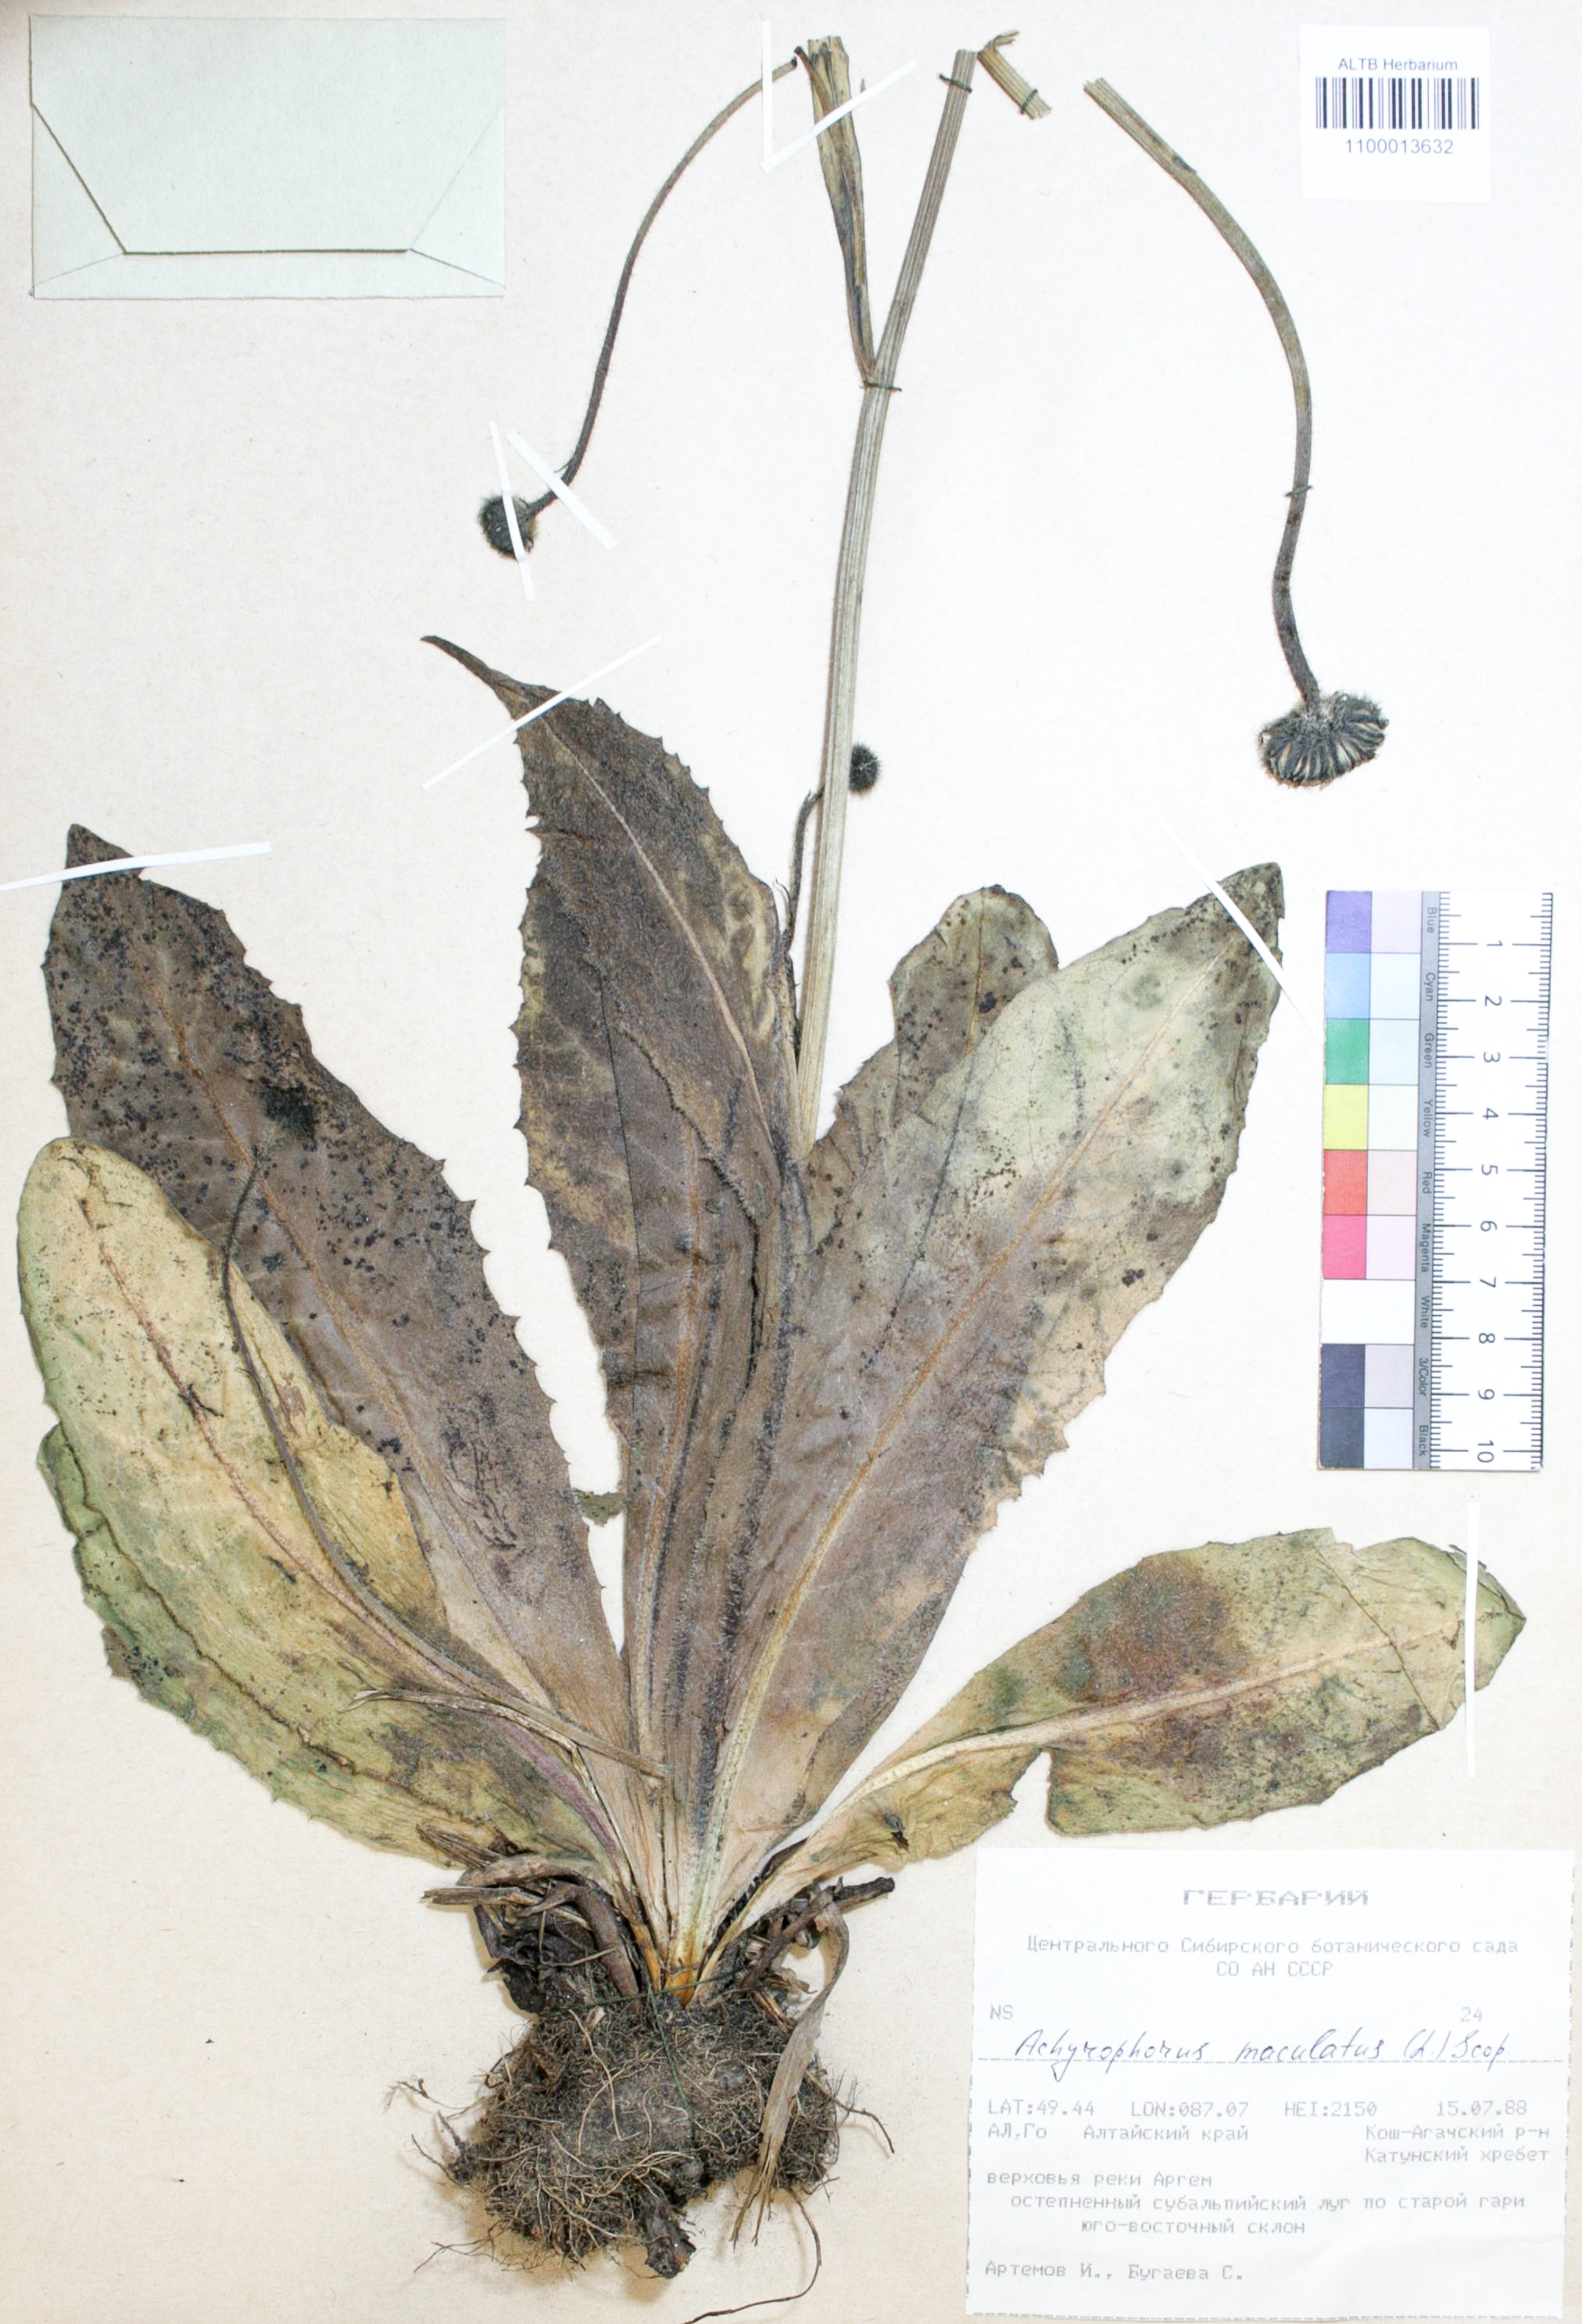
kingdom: Plantae
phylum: Tracheophyta
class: Magnoliopsida
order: Asterales
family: Asteraceae
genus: Trommsdorffia
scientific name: Trommsdorffia maculata
